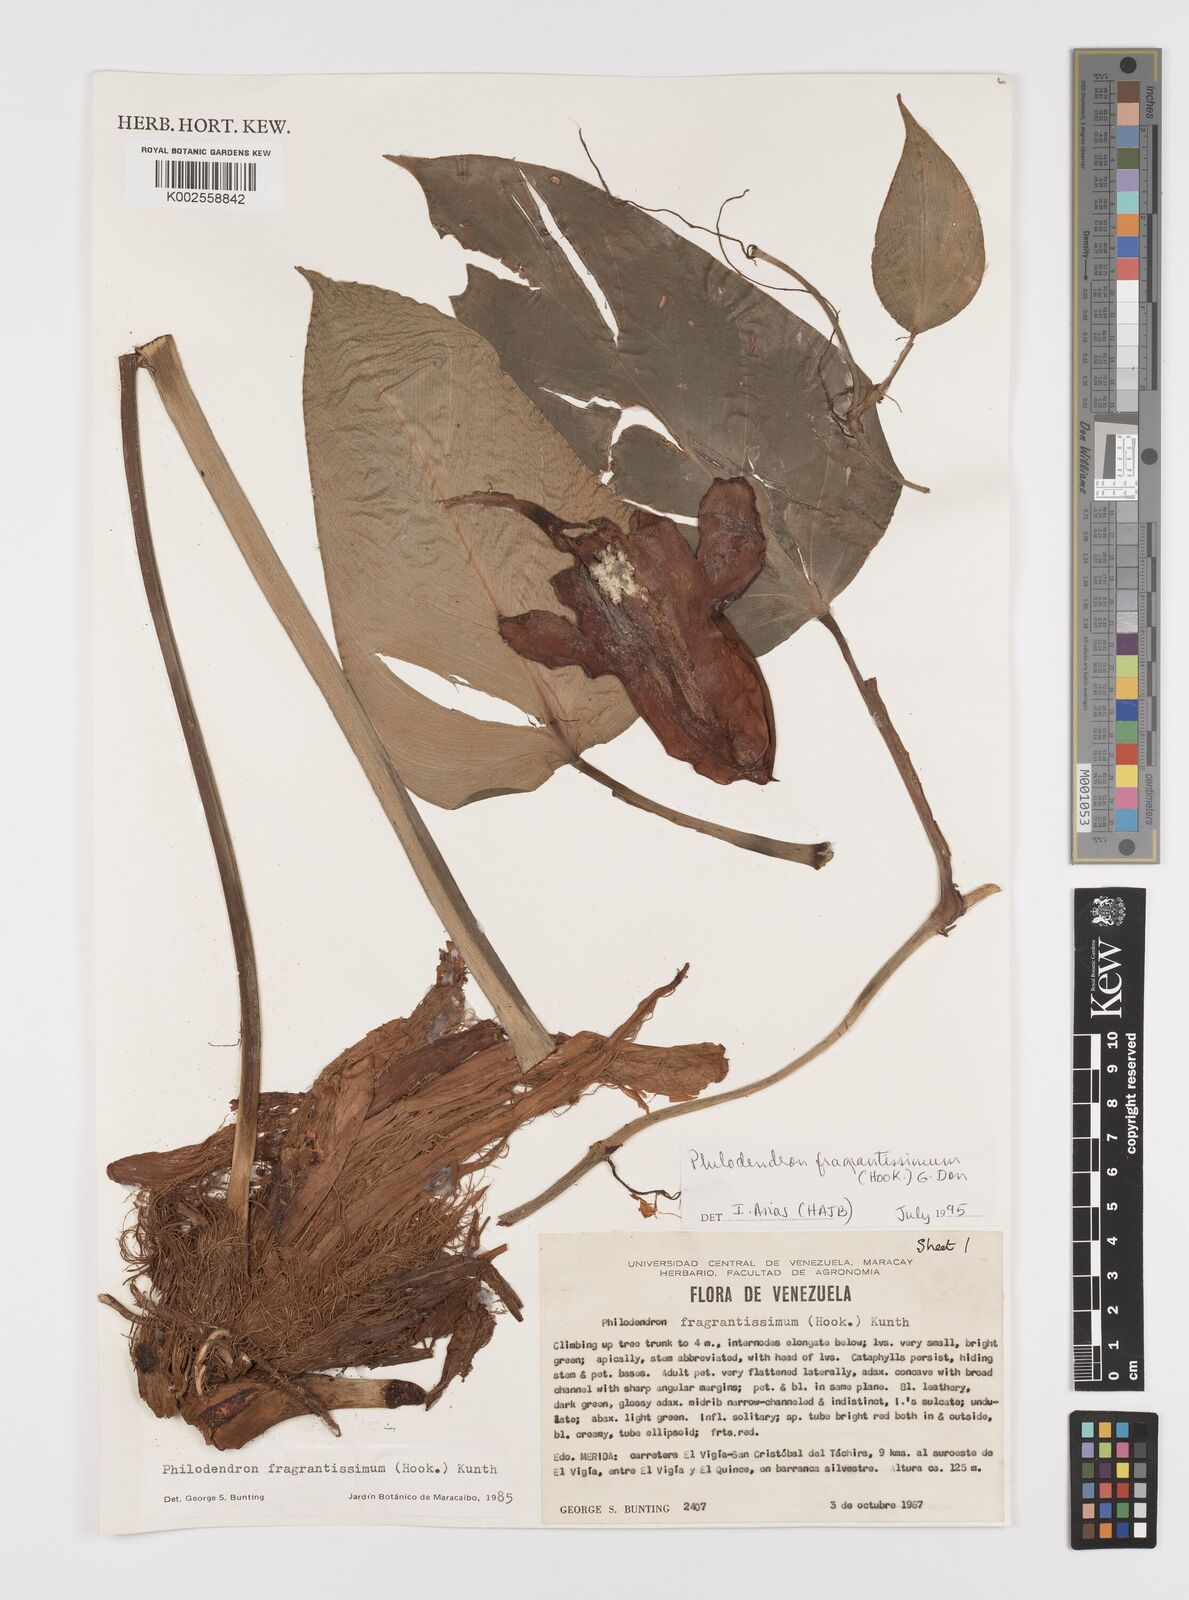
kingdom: Plantae
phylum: Tracheophyta
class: Liliopsida
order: Alismatales
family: Araceae
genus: Philodendron
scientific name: Philodendron fragrantissimum
